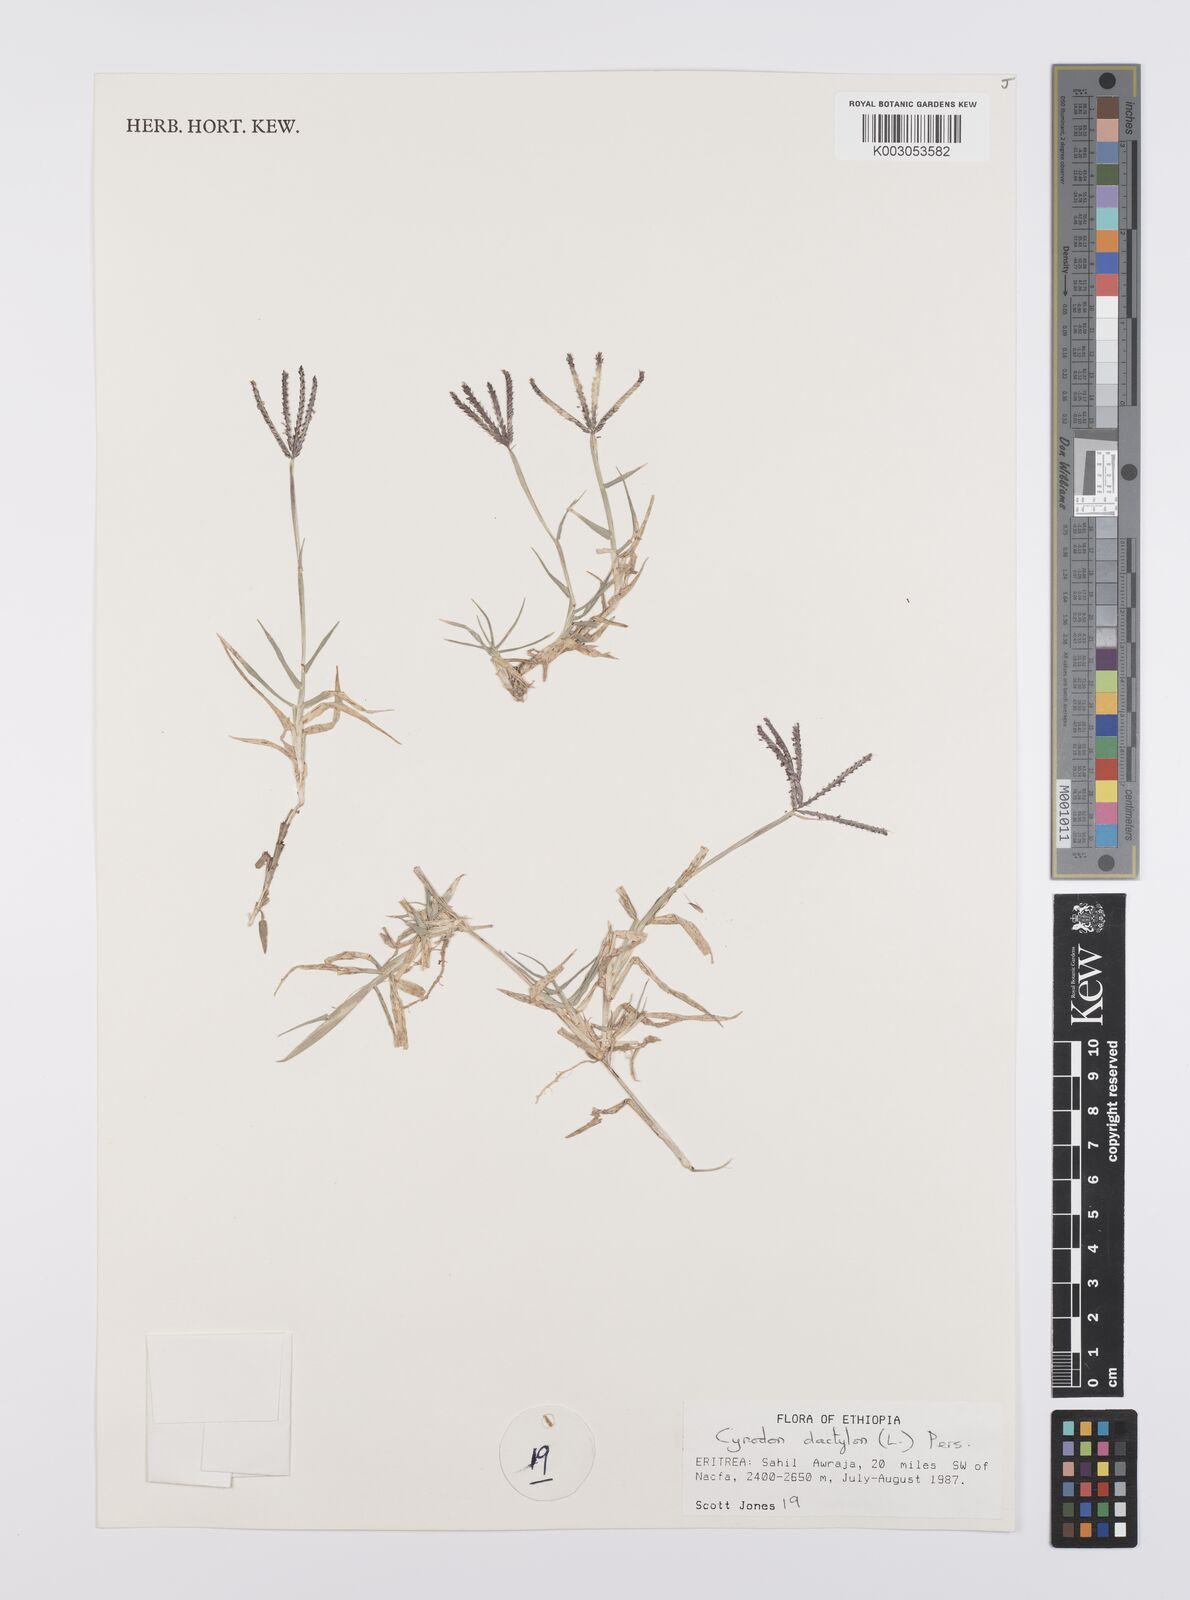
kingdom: Plantae
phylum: Tracheophyta
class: Liliopsida
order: Poales
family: Poaceae
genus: Cynodon
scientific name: Cynodon dactylon
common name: Bermuda grass
